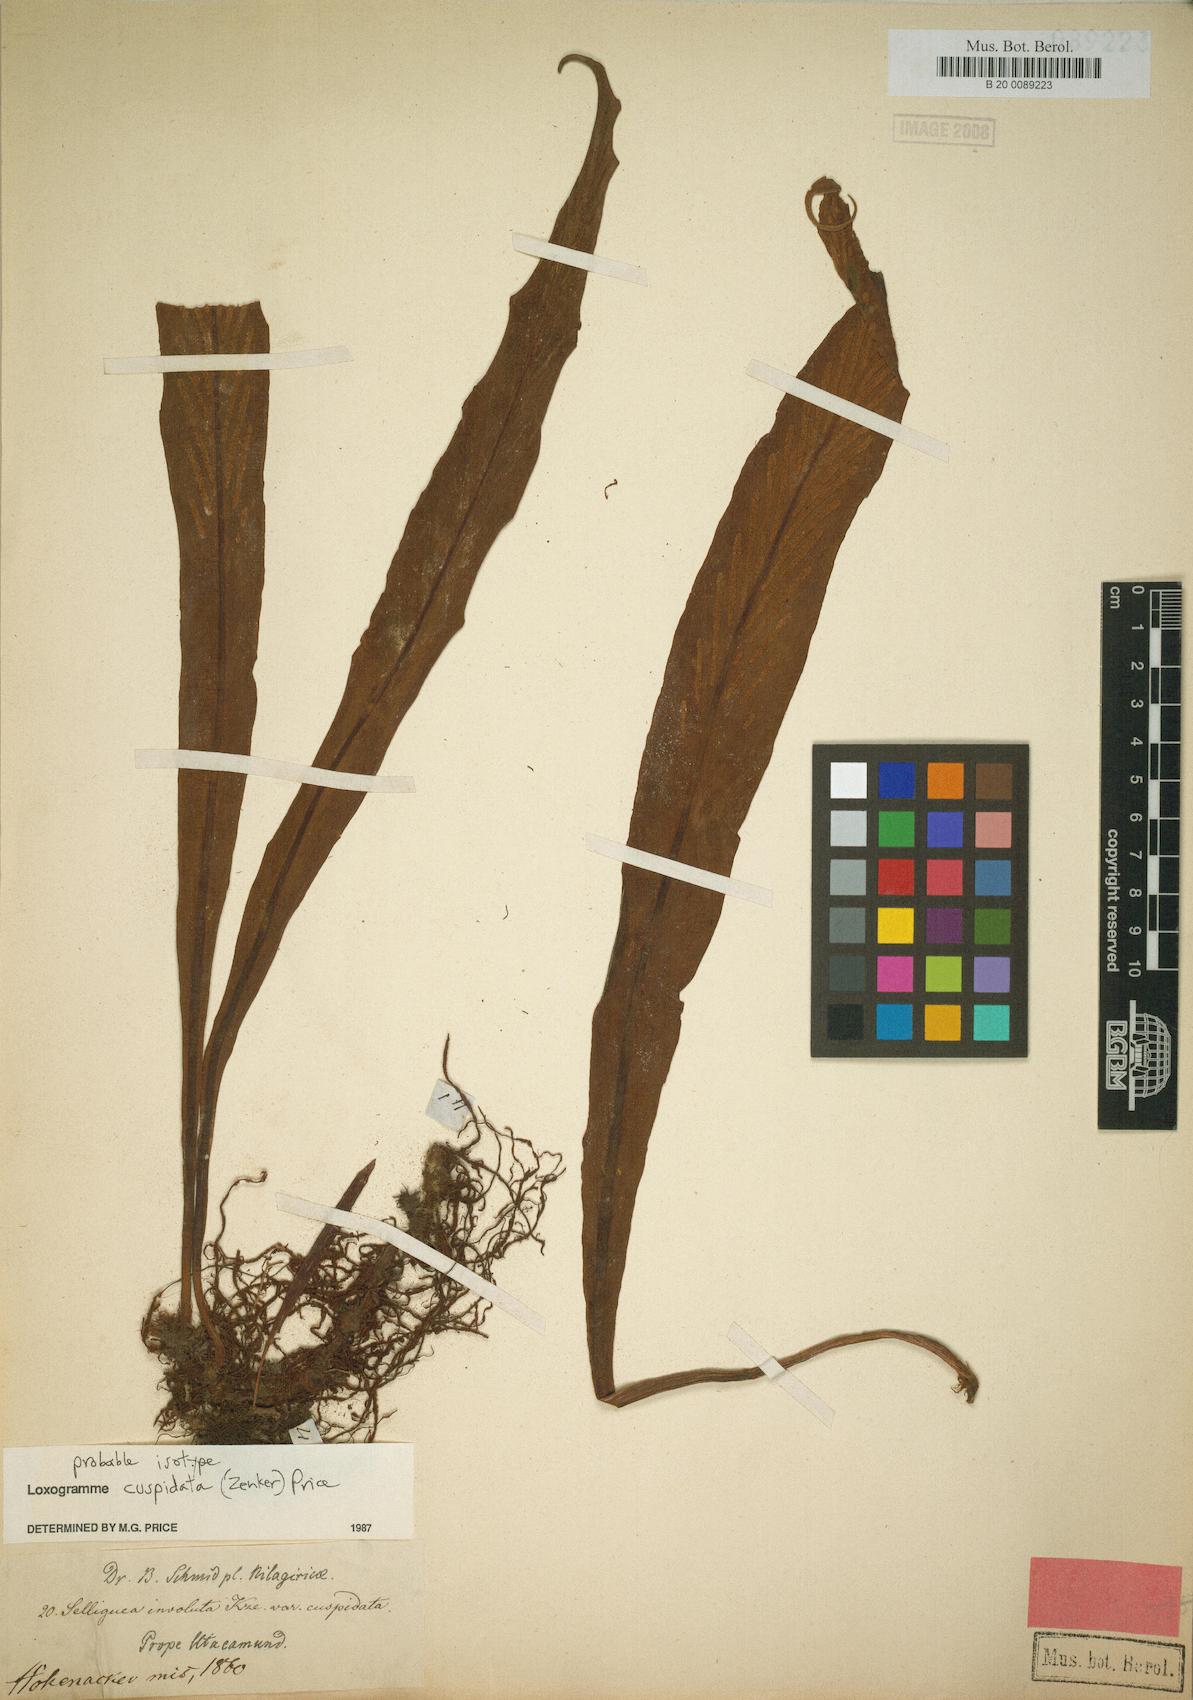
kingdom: Plantae
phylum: Tracheophyta
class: Polypodiopsida
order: Polypodiales
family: Polypodiaceae
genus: Loxogramme
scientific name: Loxogramme cuspidata
